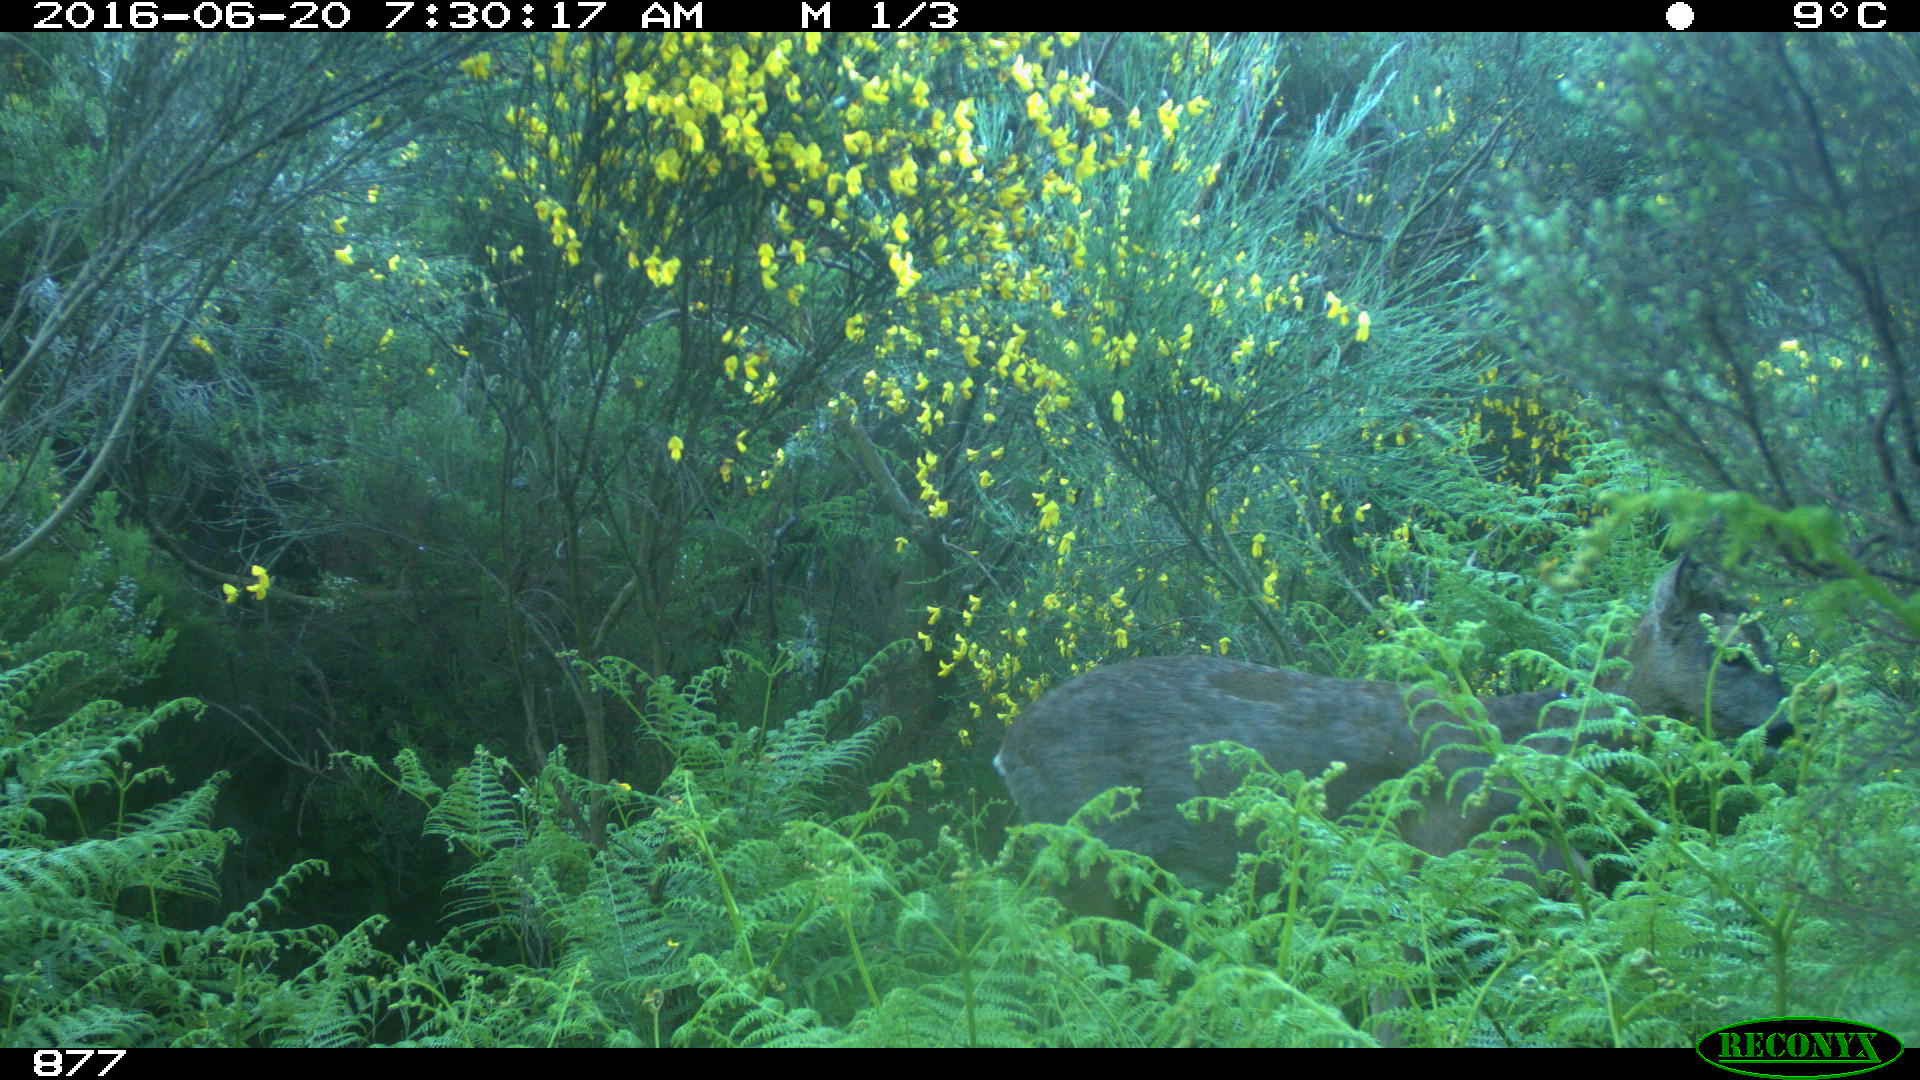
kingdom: Animalia
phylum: Chordata
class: Mammalia
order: Artiodactyla
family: Cervidae
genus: Capreolus
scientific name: Capreolus capreolus
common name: Western roe deer
